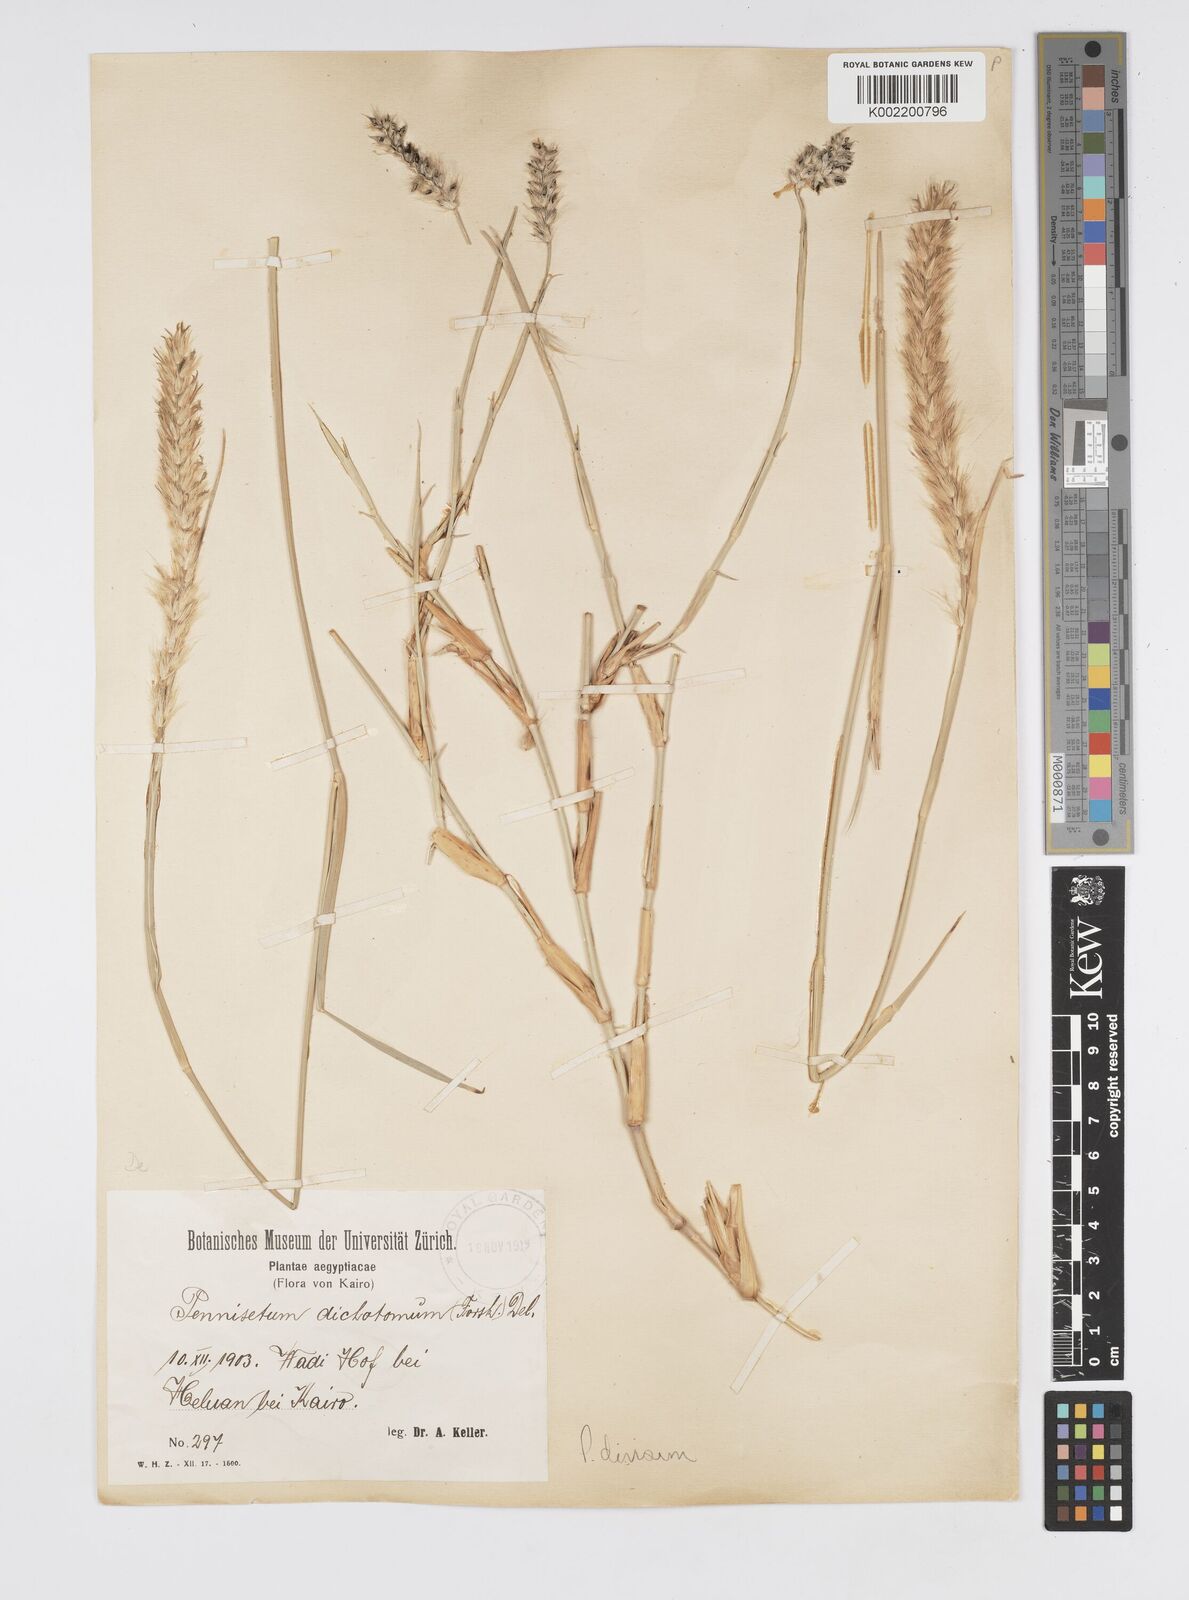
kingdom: Plantae
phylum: Tracheophyta
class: Liliopsida
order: Poales
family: Poaceae
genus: Cenchrus
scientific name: Cenchrus divisus
